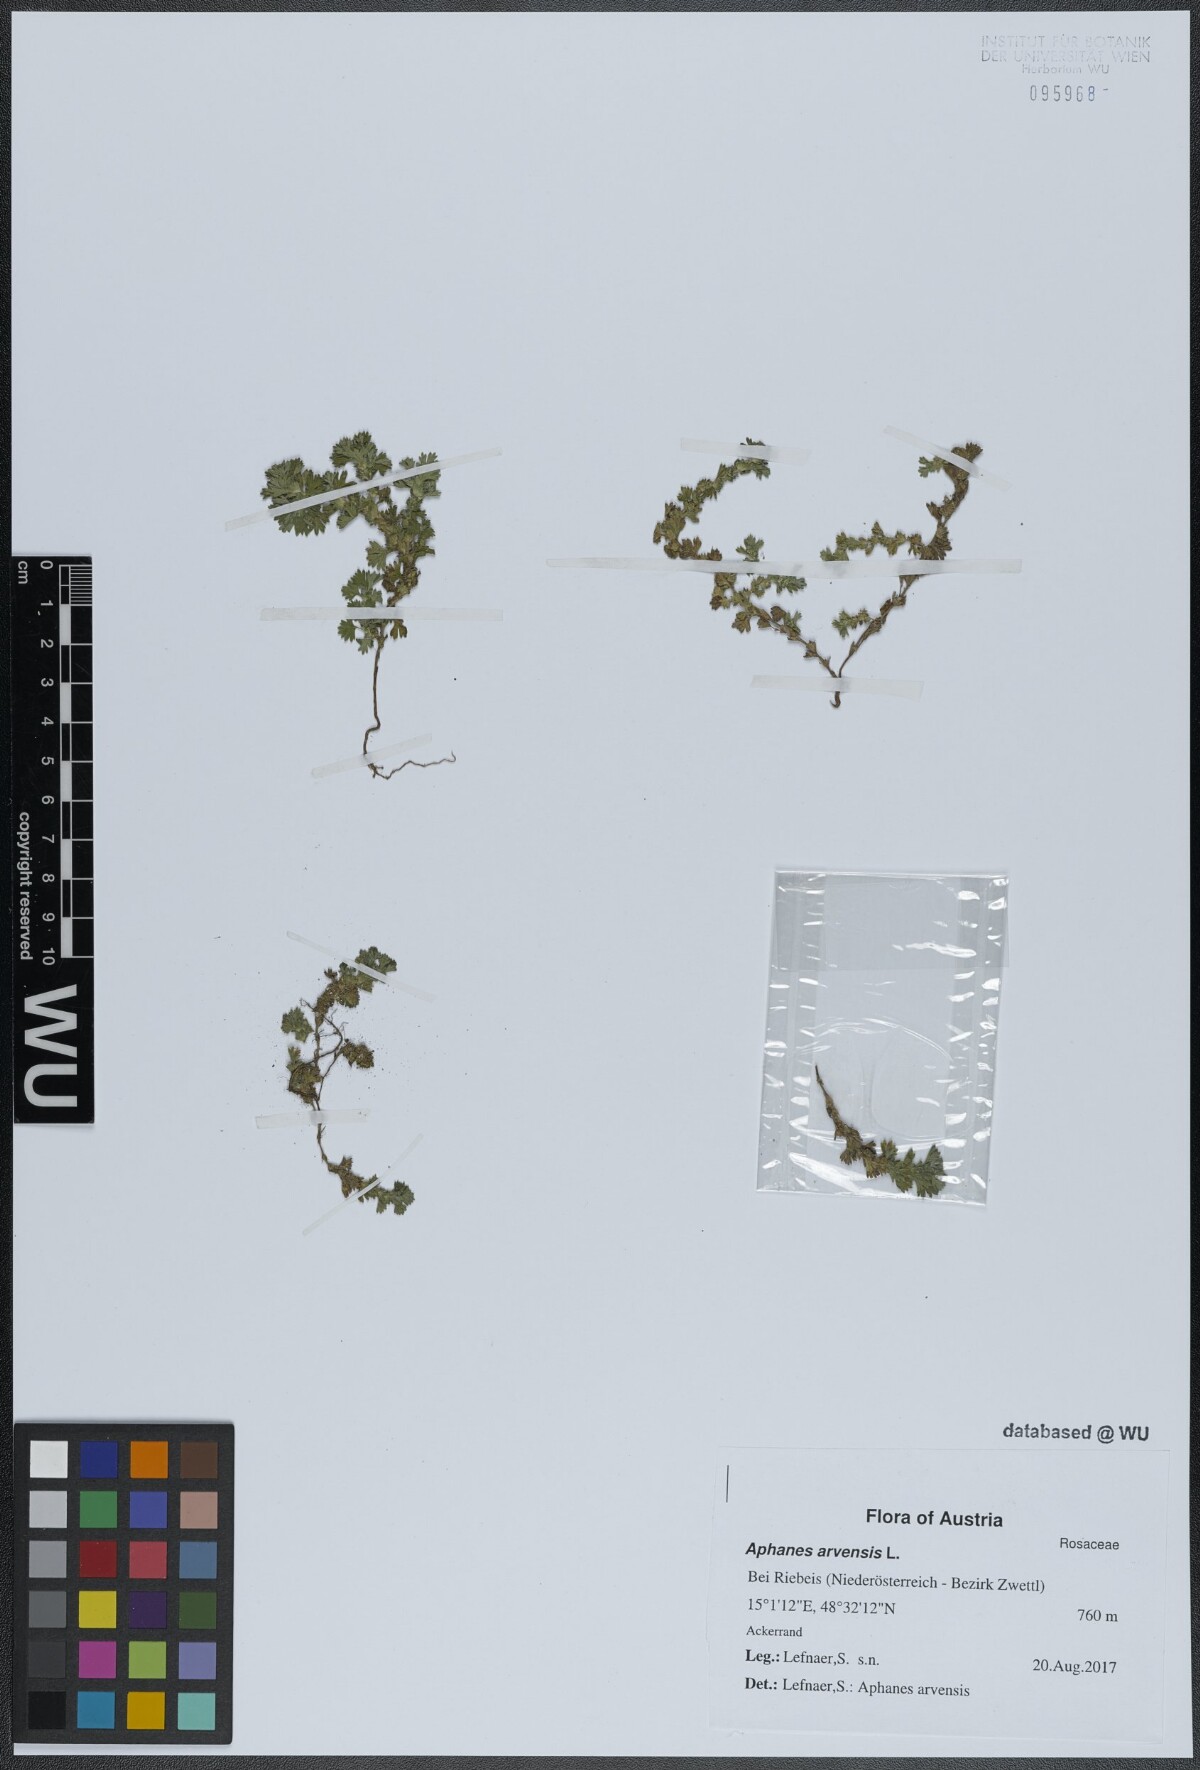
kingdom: Plantae
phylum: Tracheophyta
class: Magnoliopsida
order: Rosales
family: Rosaceae
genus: Aphanes
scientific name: Aphanes arvensis
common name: Parsley-piert
